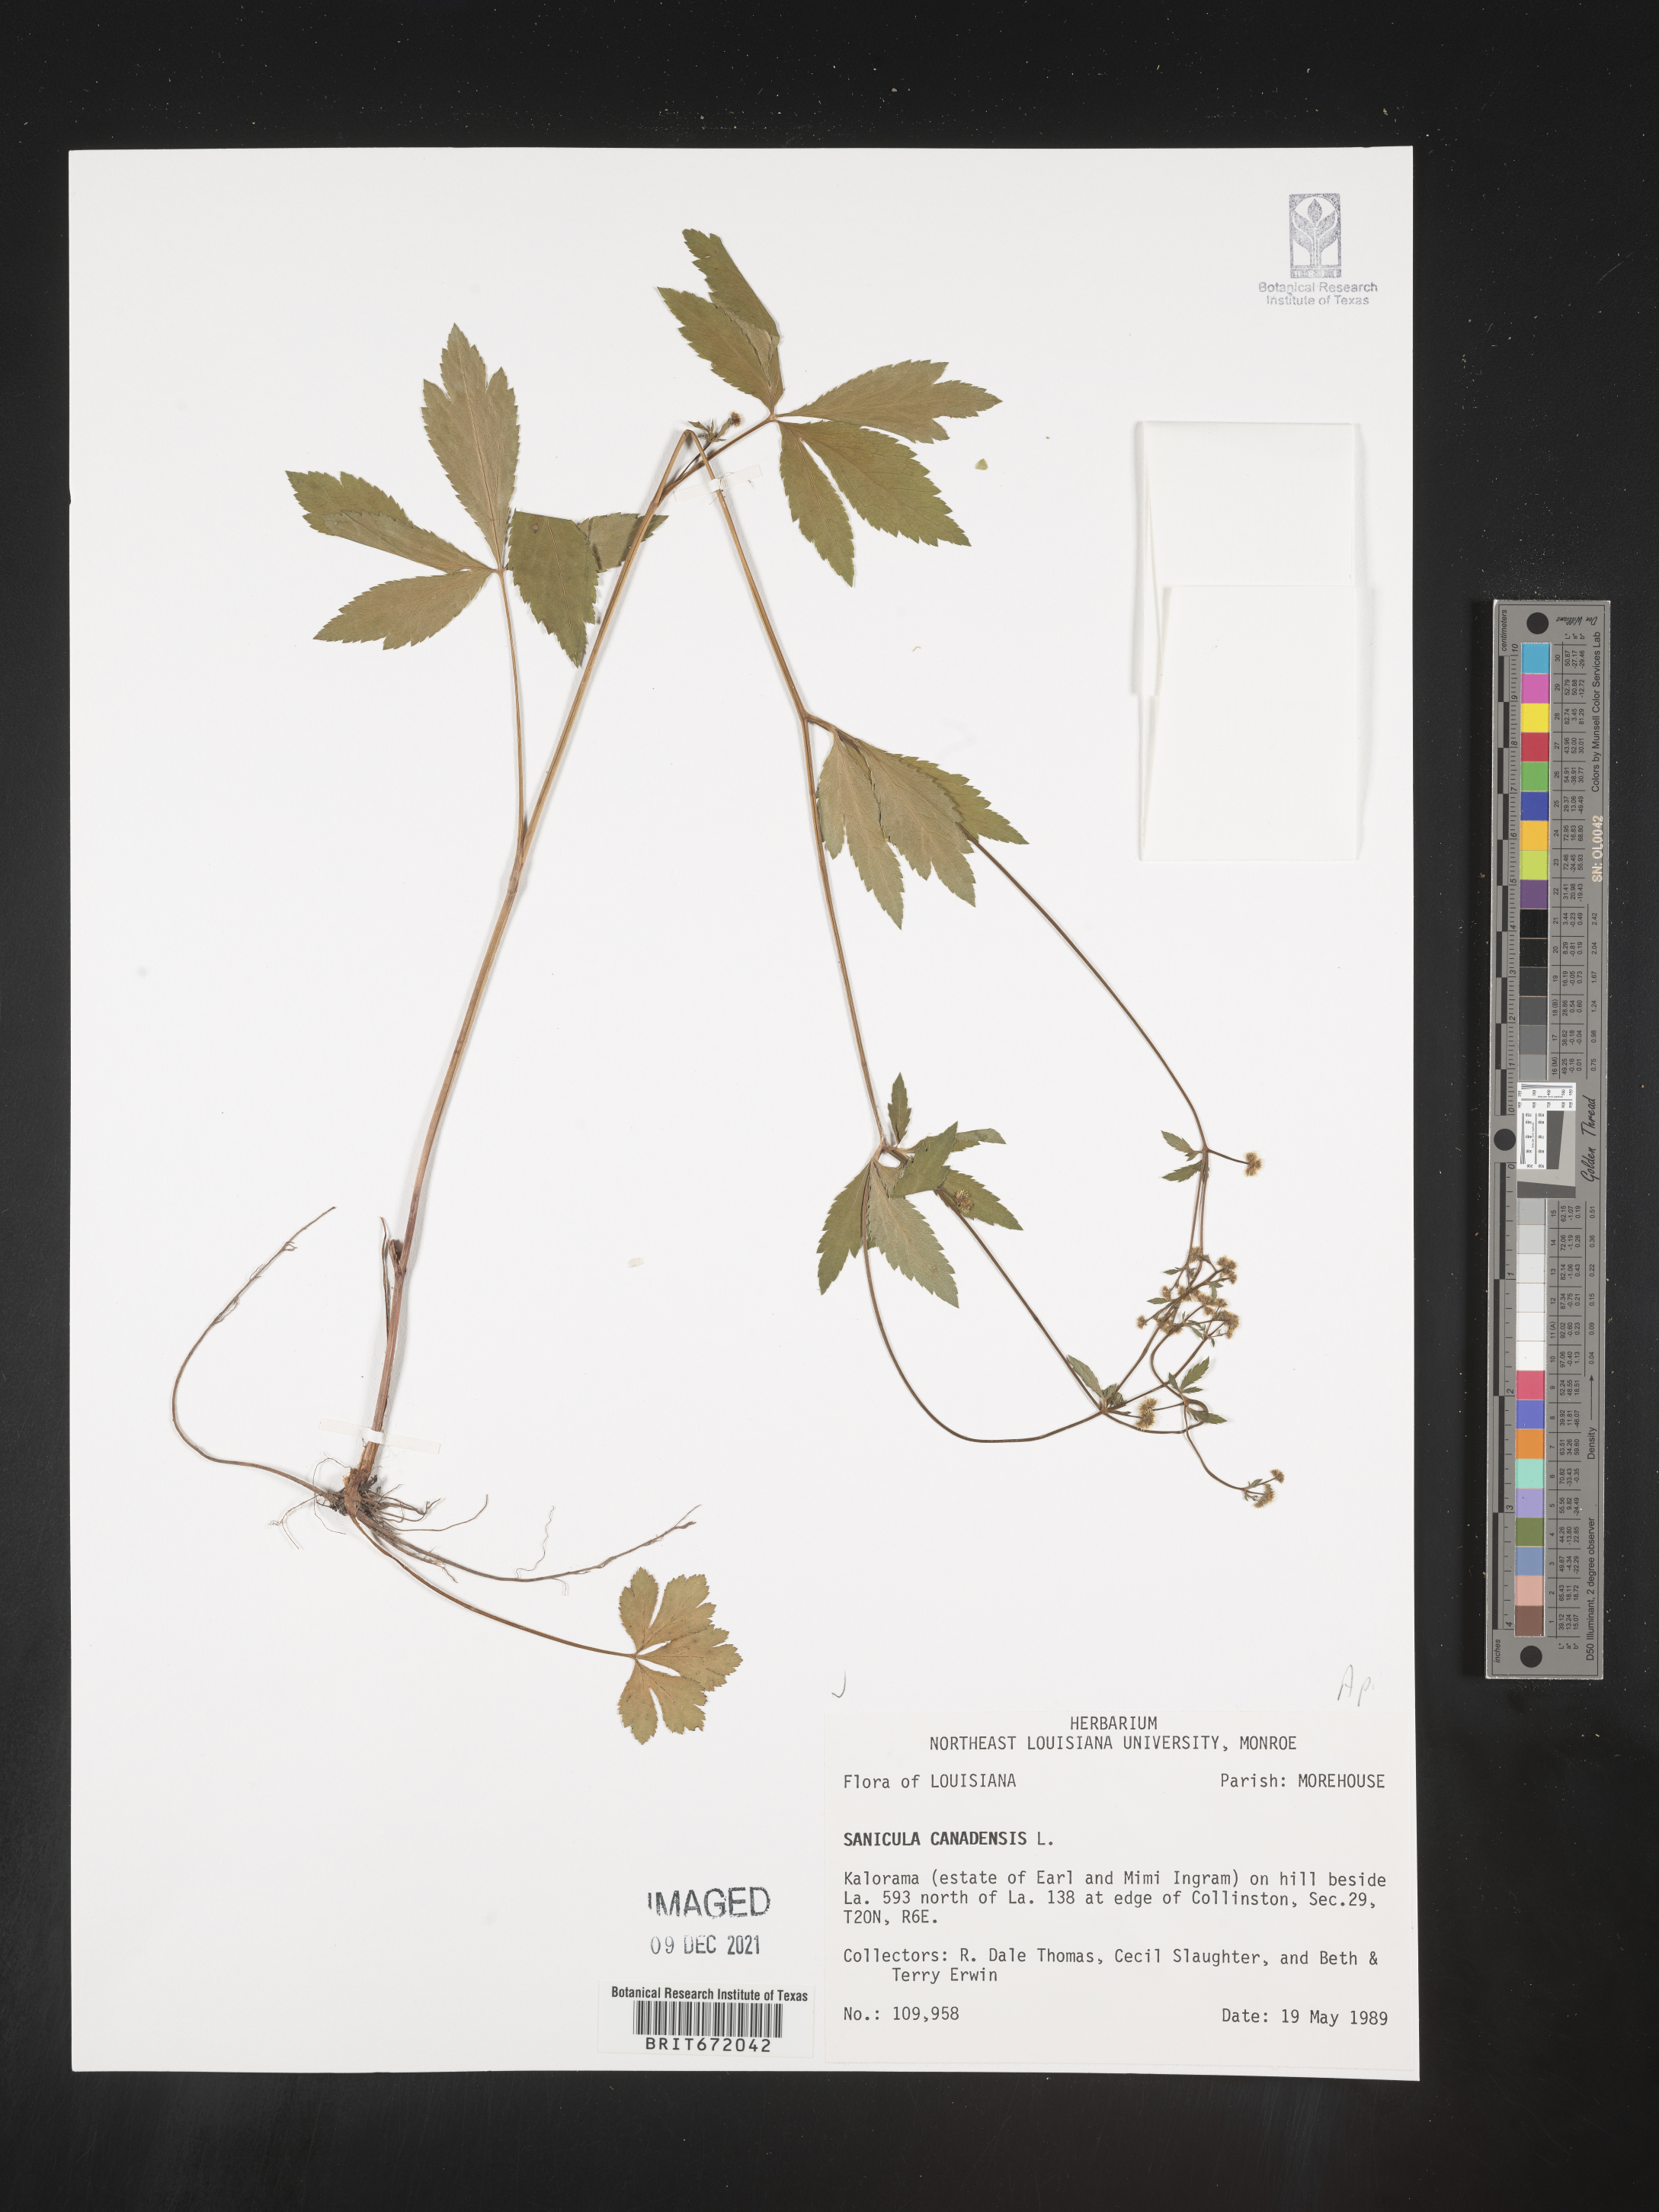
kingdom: Plantae
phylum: Tracheophyta
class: Magnoliopsida
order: Apiales
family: Apiaceae
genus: Sanicula
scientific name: Sanicula canadensis
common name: Canada sanicle
